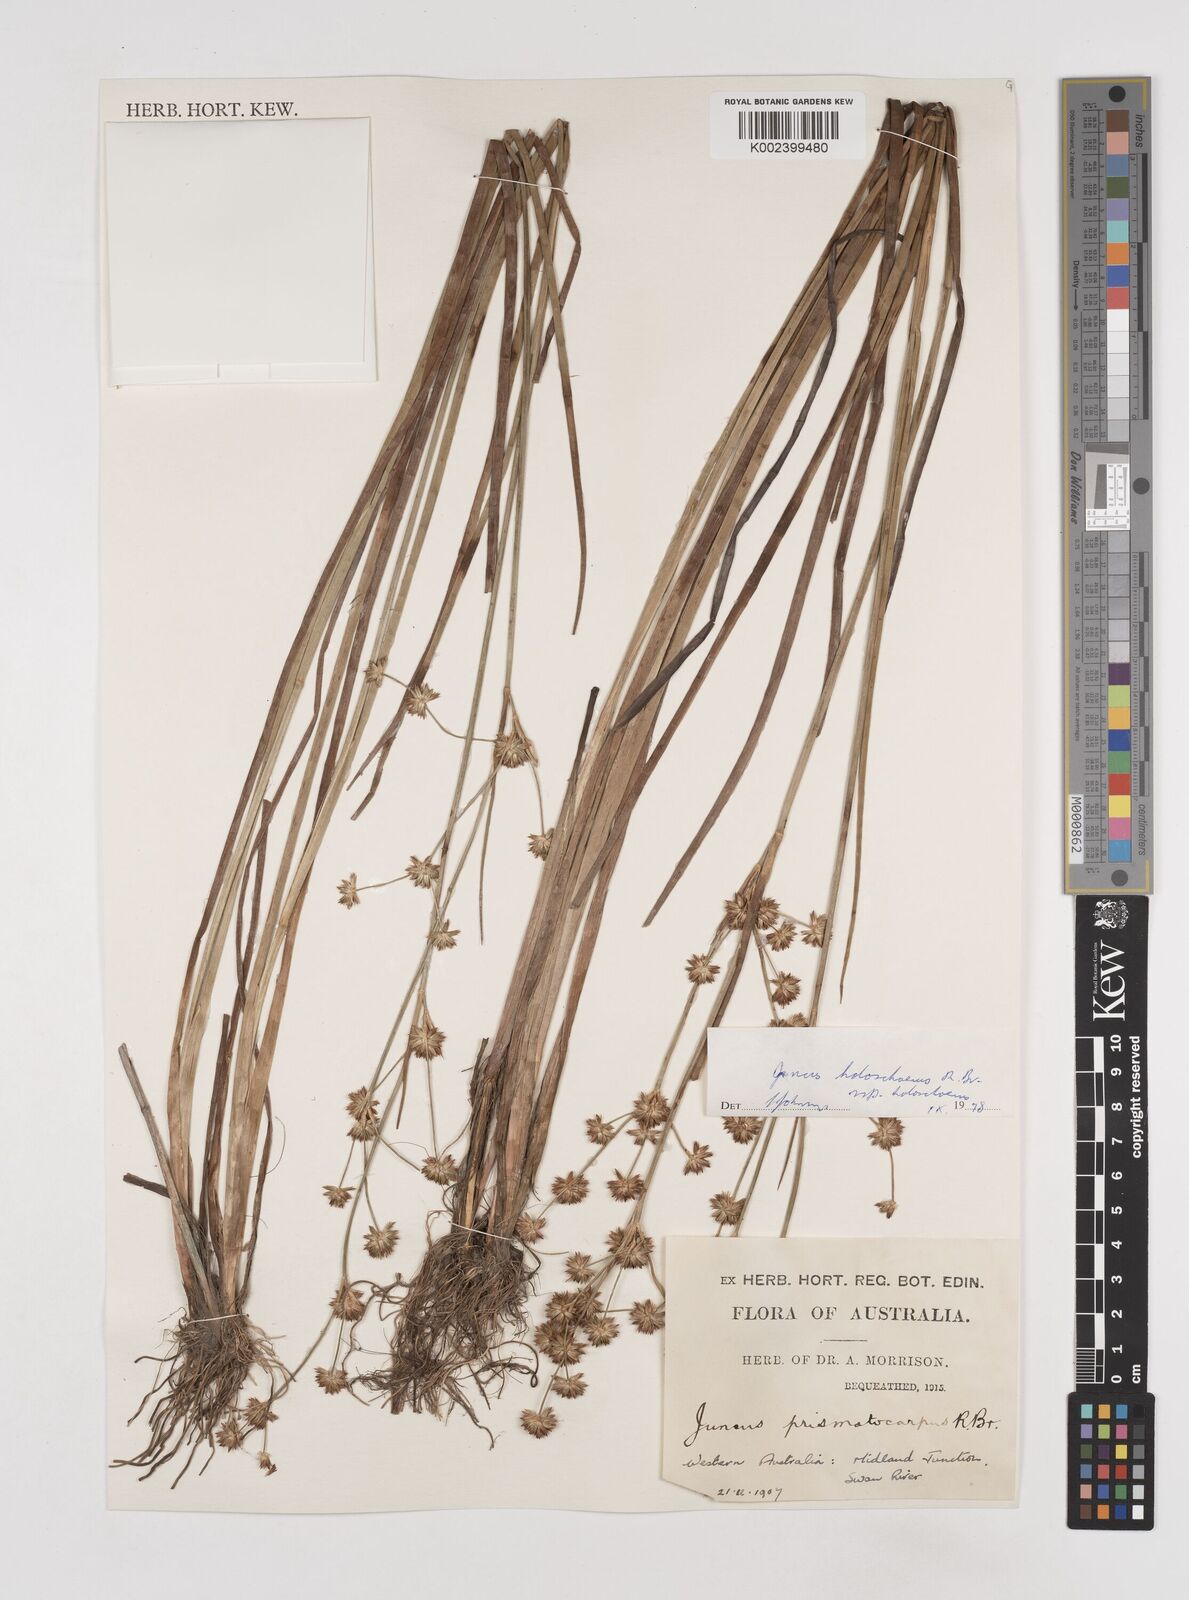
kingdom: Plantae
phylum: Tracheophyta
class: Liliopsida
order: Poales
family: Juncaceae
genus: Juncus
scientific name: Juncus holoschoenus
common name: Joint-leaf rush
